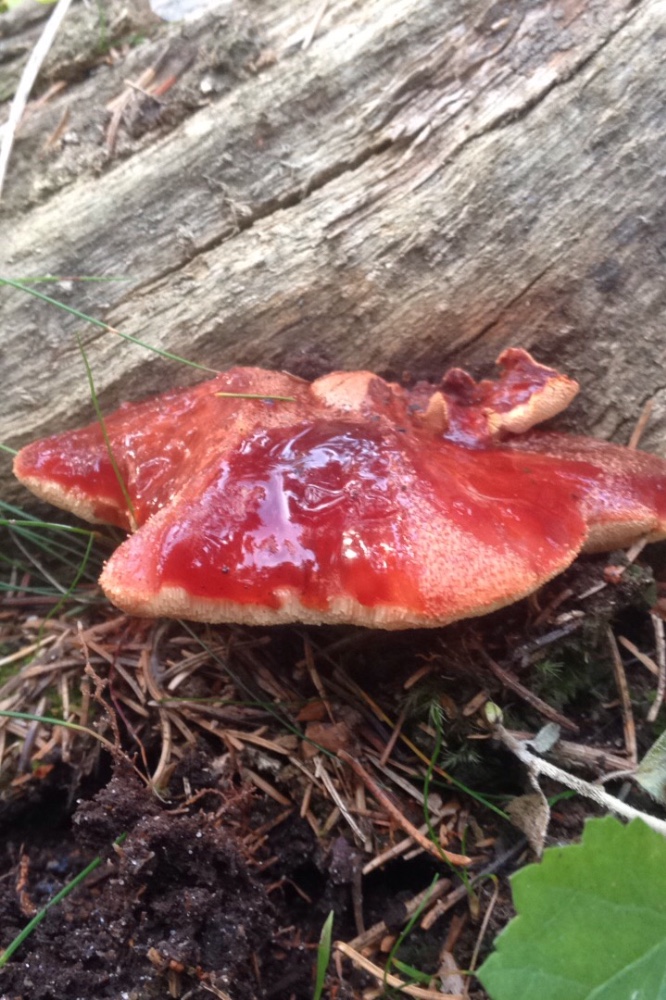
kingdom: Fungi
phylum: Basidiomycota
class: Agaricomycetes
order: Agaricales
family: Fistulinaceae
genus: Fistulina
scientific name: Fistulina hepatica
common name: oksetunge
